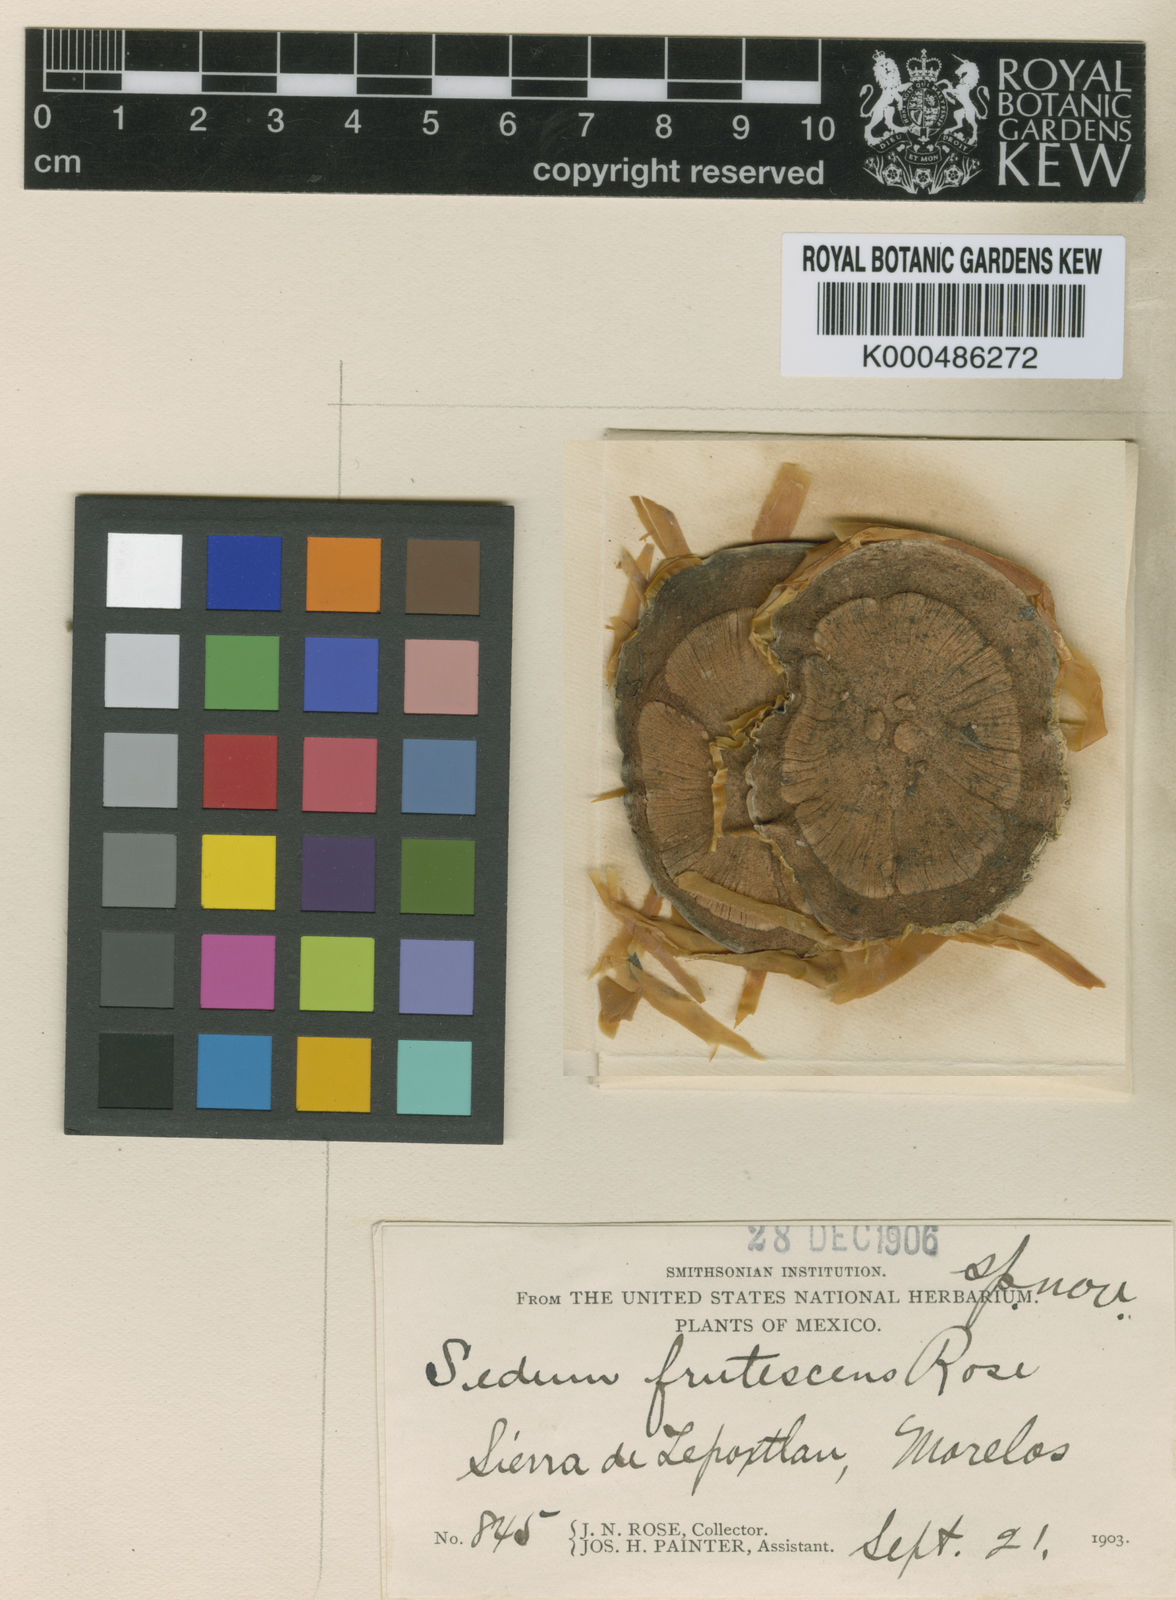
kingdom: Plantae
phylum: Tracheophyta
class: Magnoliopsida
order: Saxifragales
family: Crassulaceae
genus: Sedum
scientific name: Sedum frutescens
